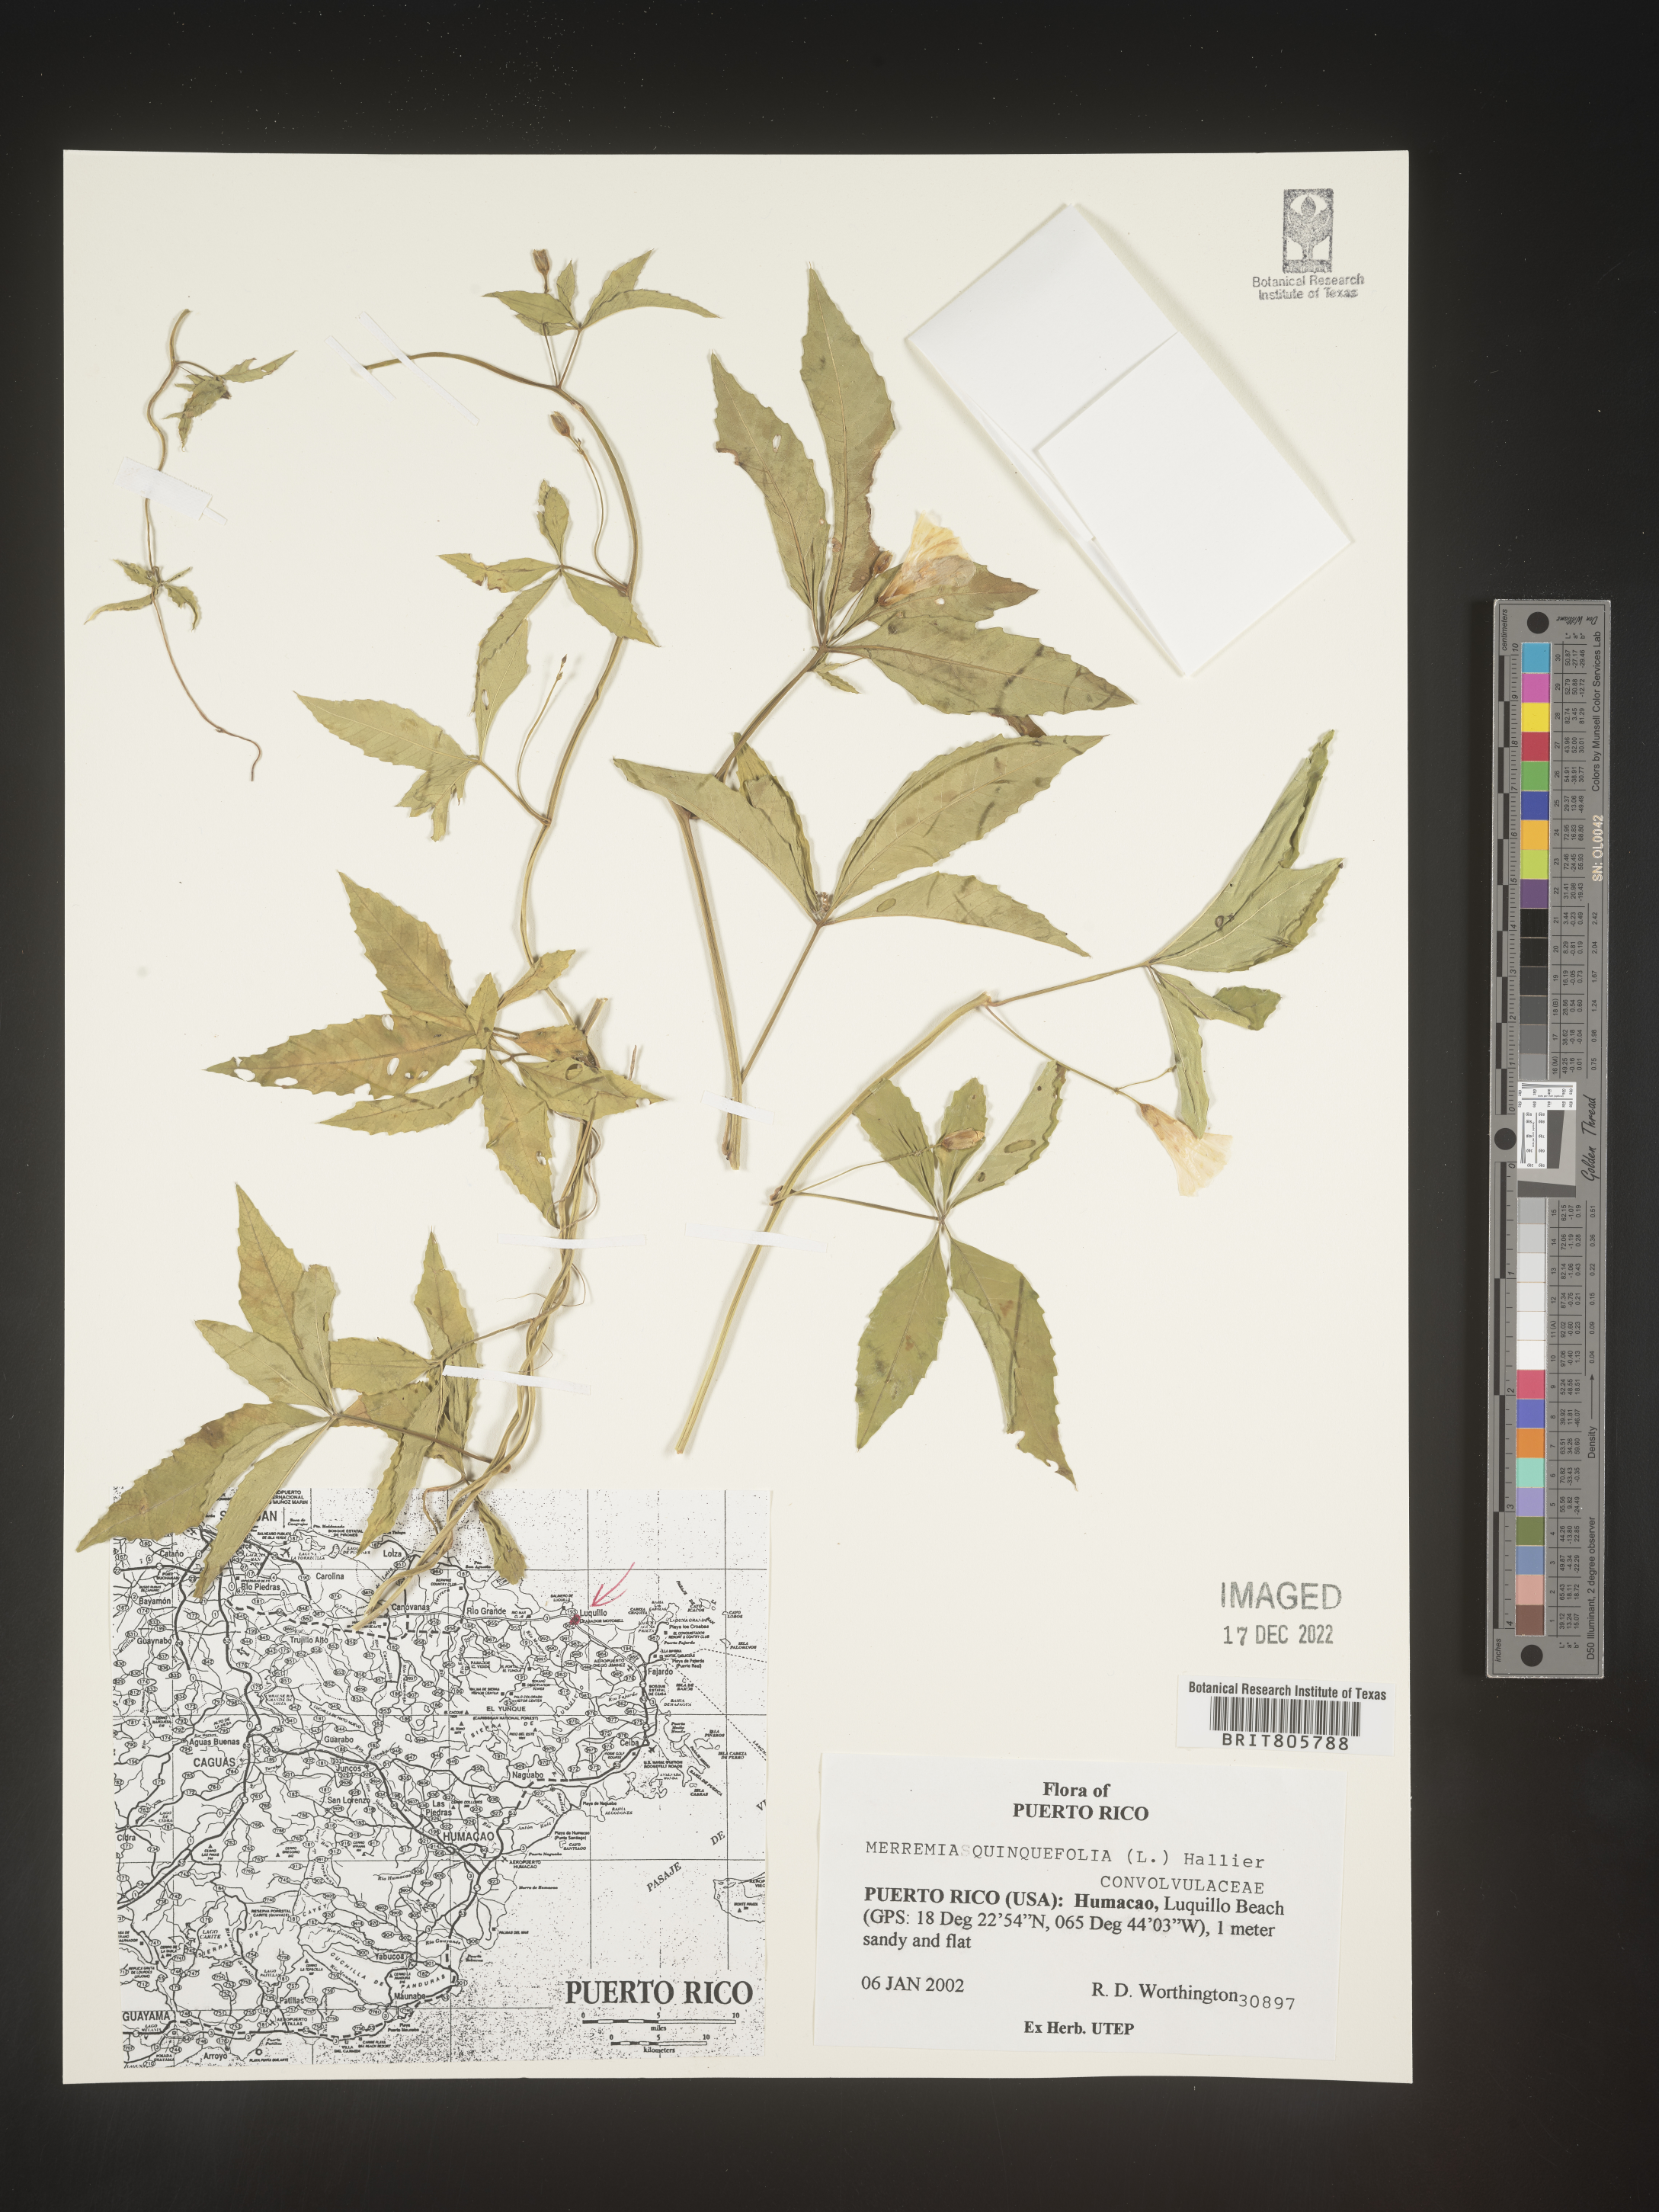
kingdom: Plantae
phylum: Tracheophyta
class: Magnoliopsida
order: Solanales
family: Convolvulaceae
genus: Merremia
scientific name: Merremia
